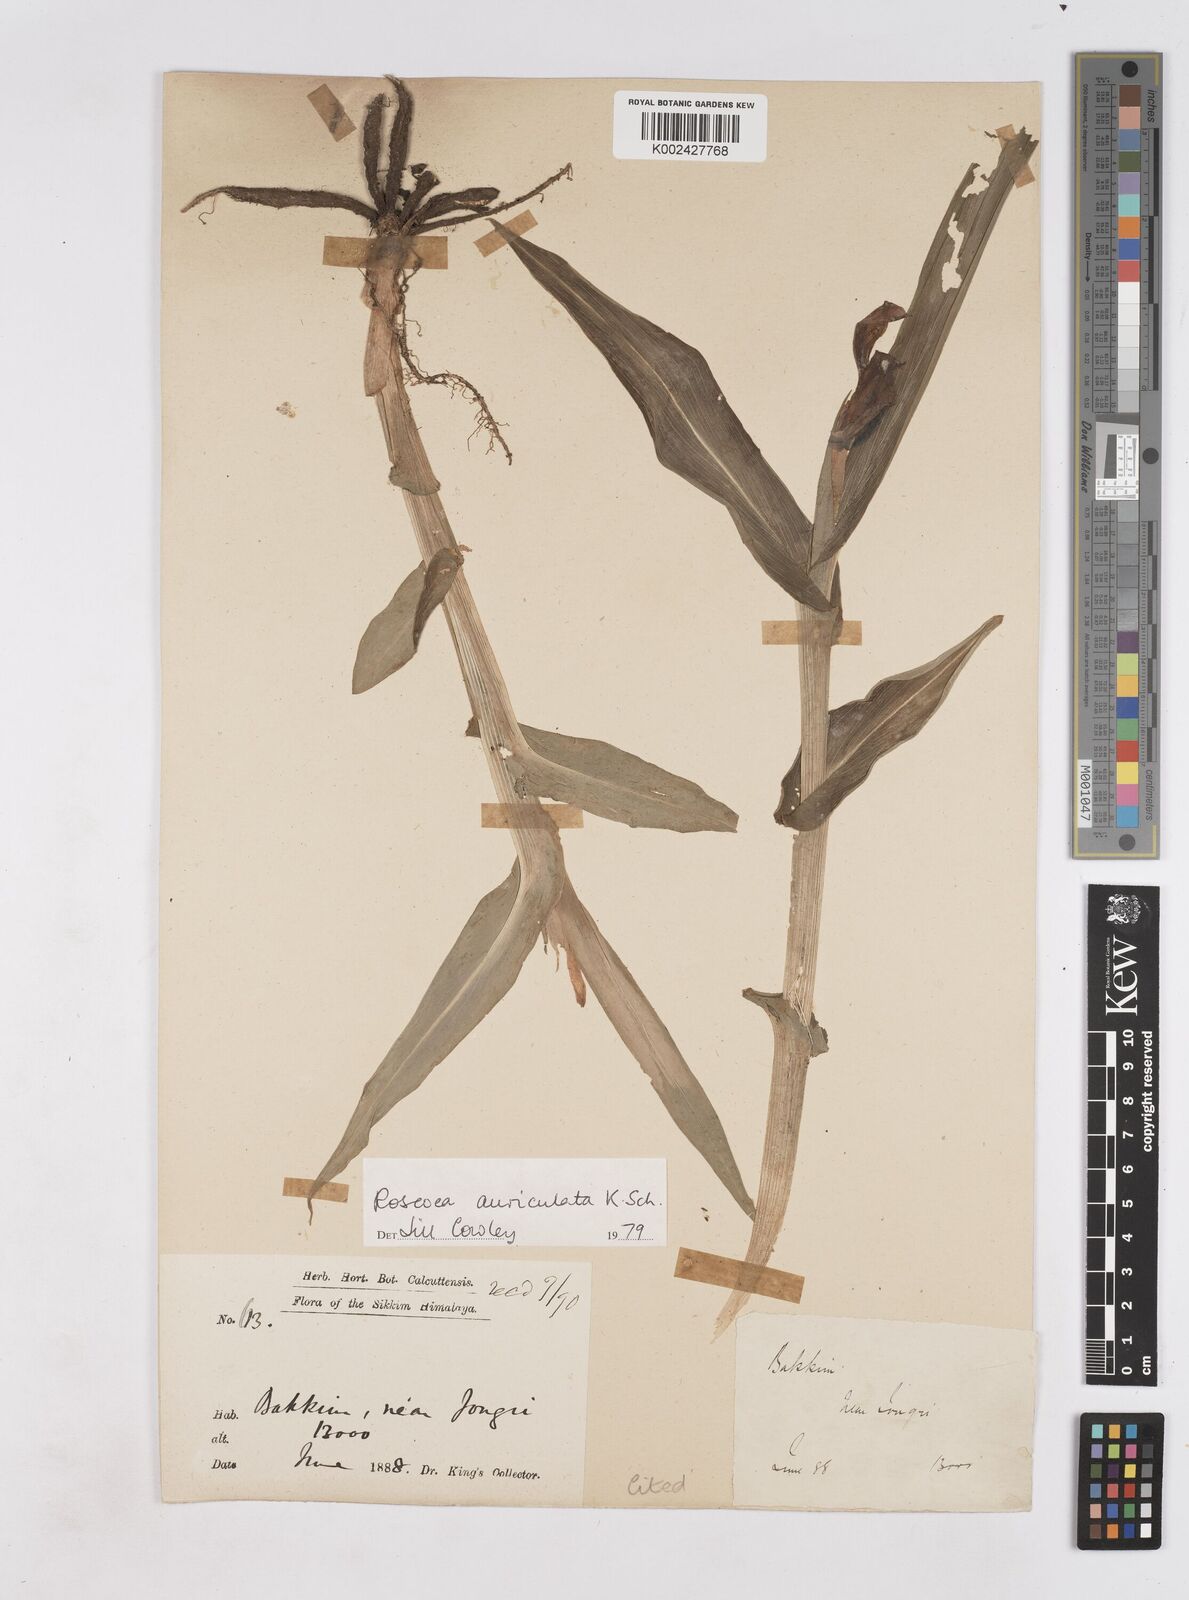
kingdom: Plantae
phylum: Tracheophyta
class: Liliopsida
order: Zingiberales
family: Zingiberaceae
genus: Roscoea
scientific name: Roscoea auriculata
